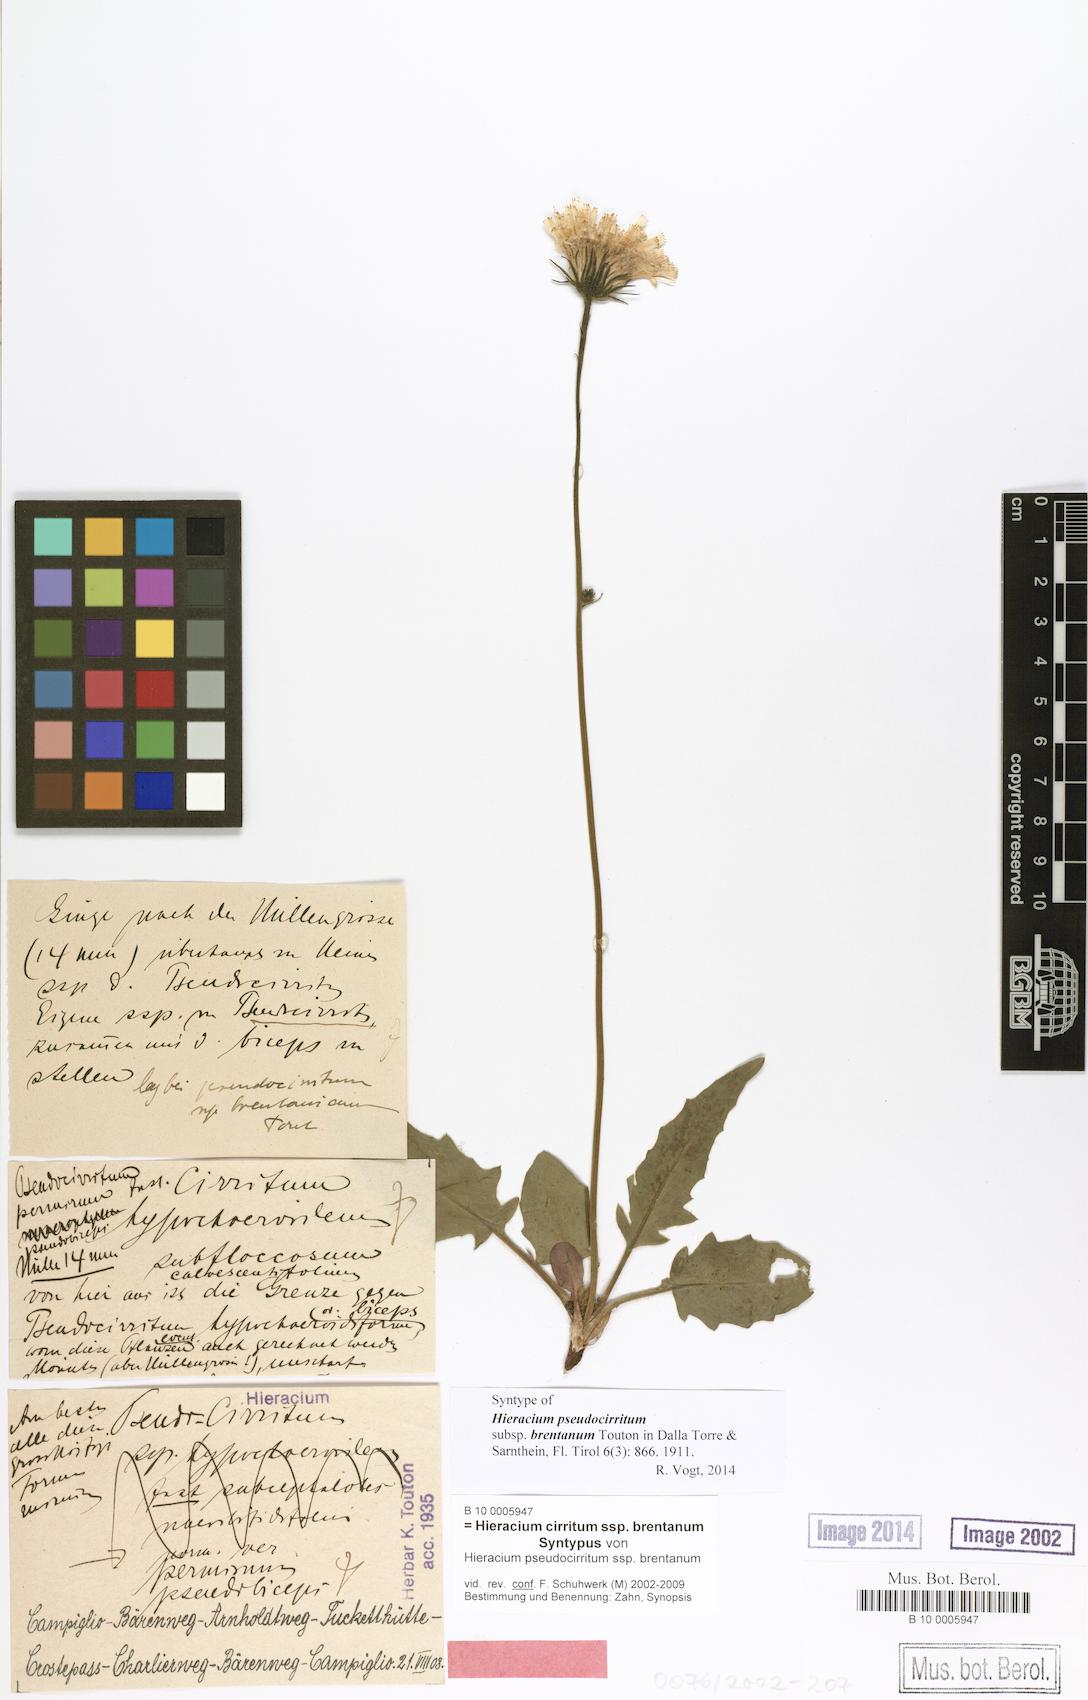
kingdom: Plantae
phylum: Tracheophyta
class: Magnoliopsida
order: Asterales
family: Asteraceae
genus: Hieracium
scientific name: Hieracium cirritum
